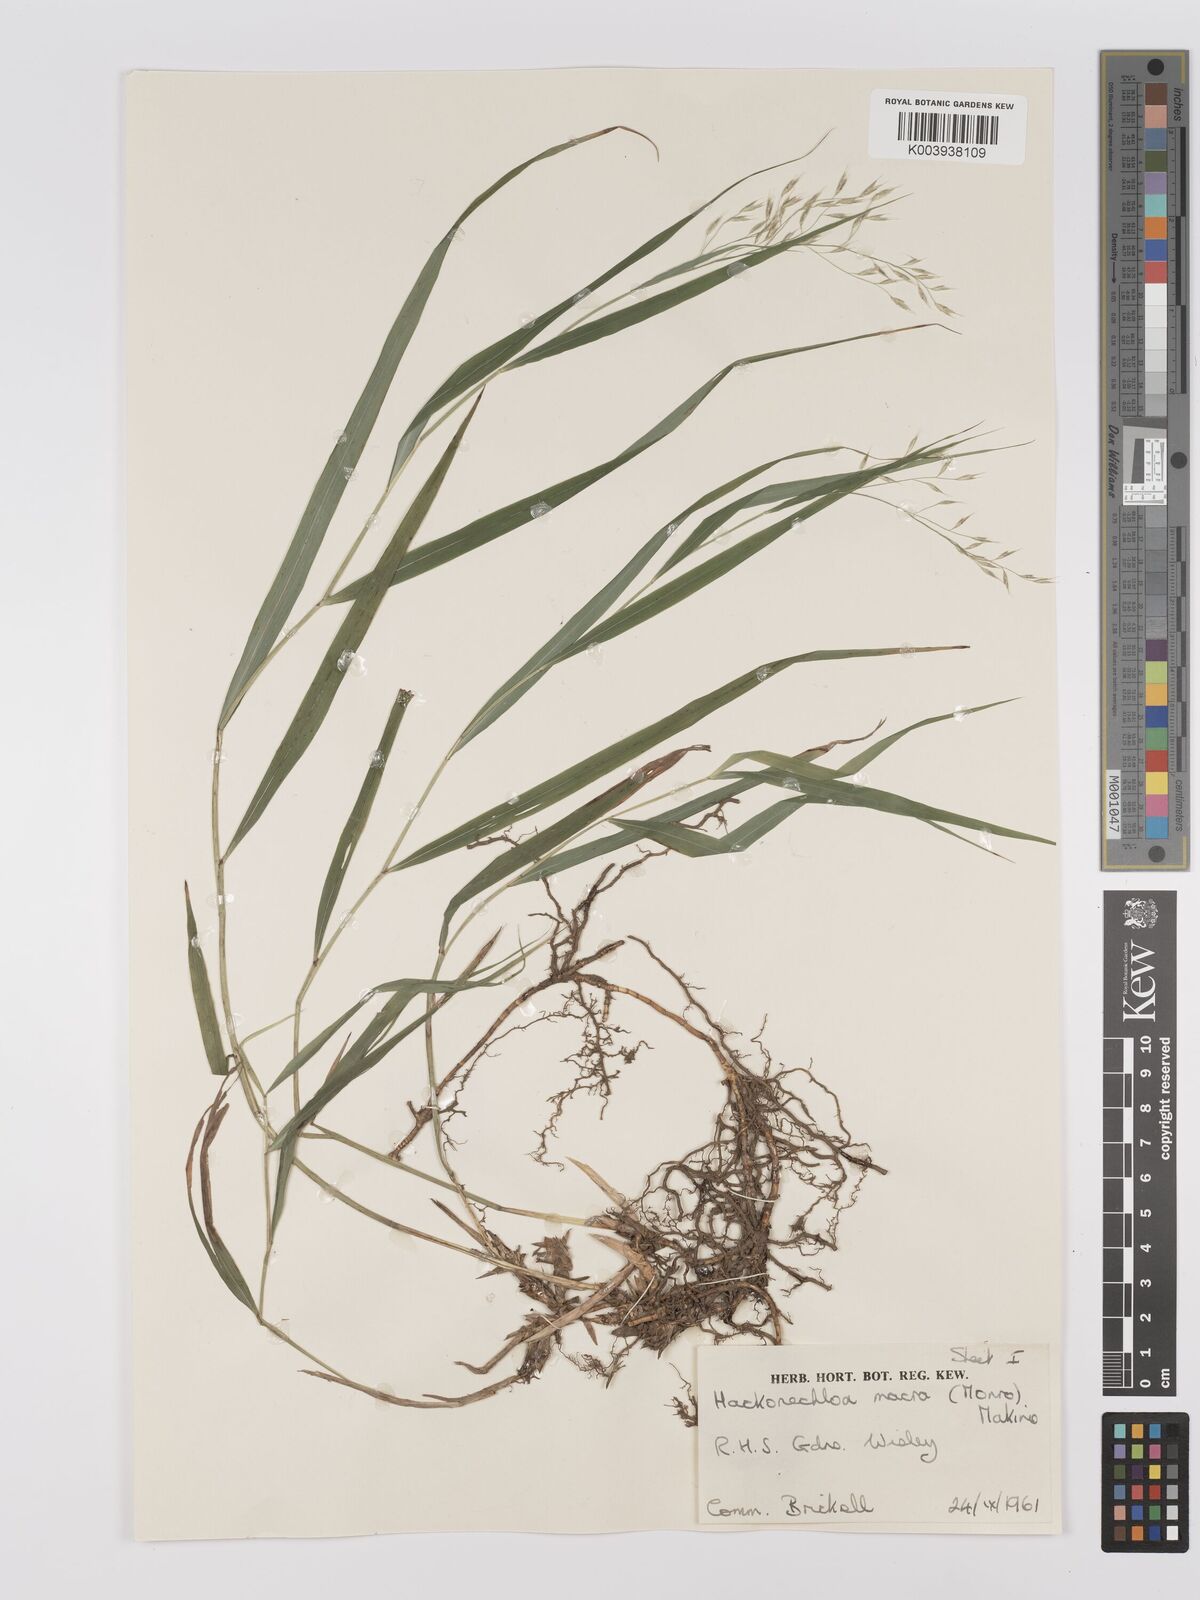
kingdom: Plantae
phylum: Tracheophyta
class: Liliopsida
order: Poales
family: Poaceae
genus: Hakonechloa
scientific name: Hakonechloa macra
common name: Hakone grass
